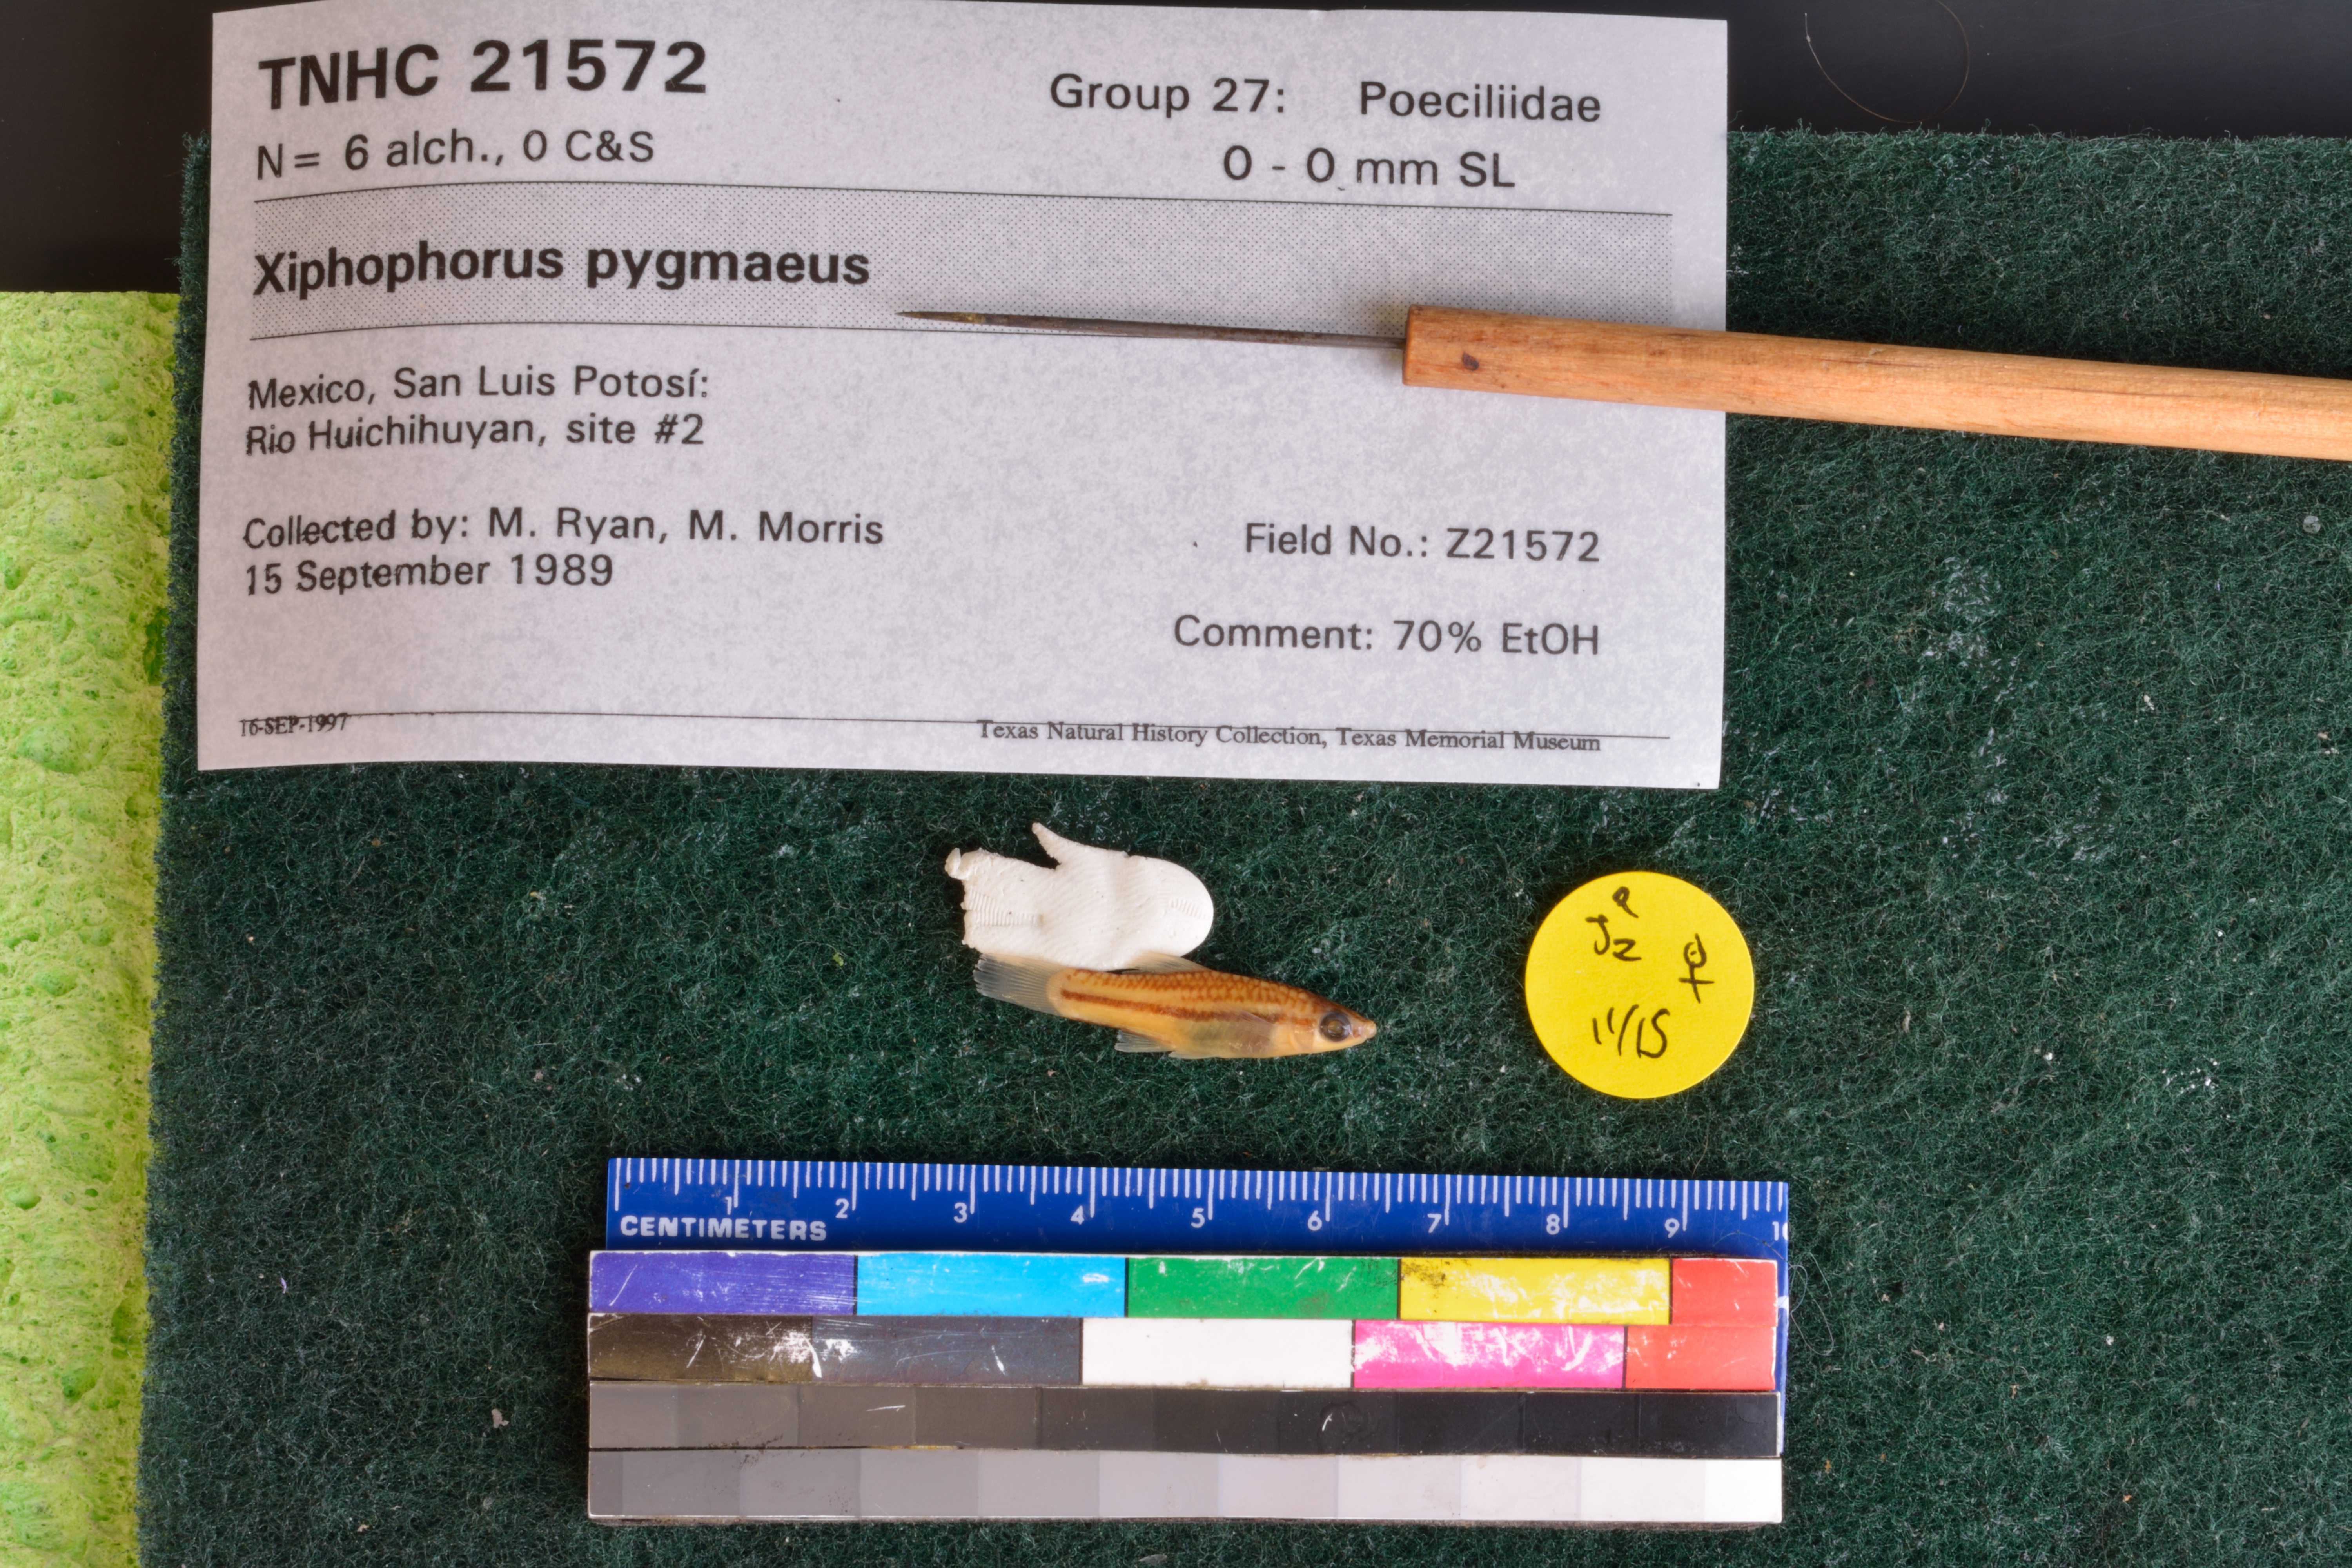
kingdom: Animalia
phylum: Chordata
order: Cyprinodontiformes
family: Poeciliidae
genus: Xiphophorus
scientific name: Xiphophorus pygmaeus
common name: Pygmy swordtail
